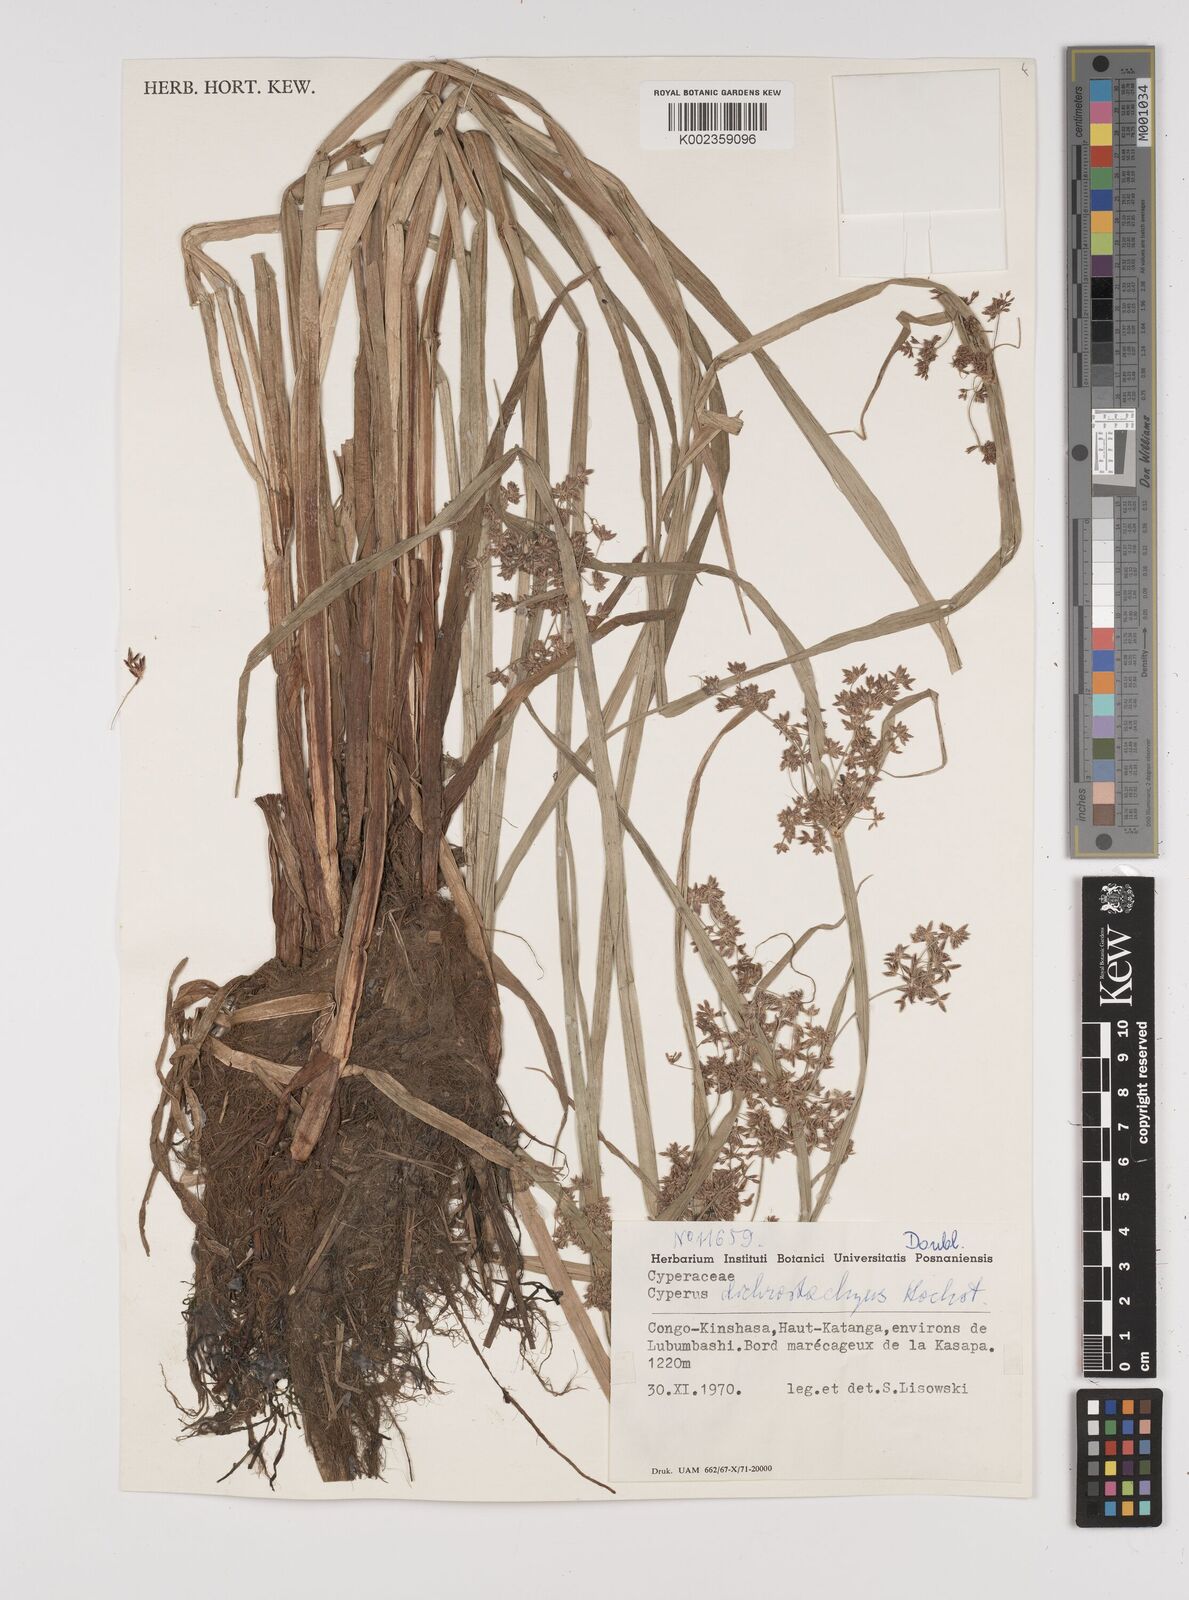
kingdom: Plantae
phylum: Tracheophyta
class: Liliopsida
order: Poales
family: Cyperaceae
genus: Cyperus
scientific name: Cyperus dichrostachyus
